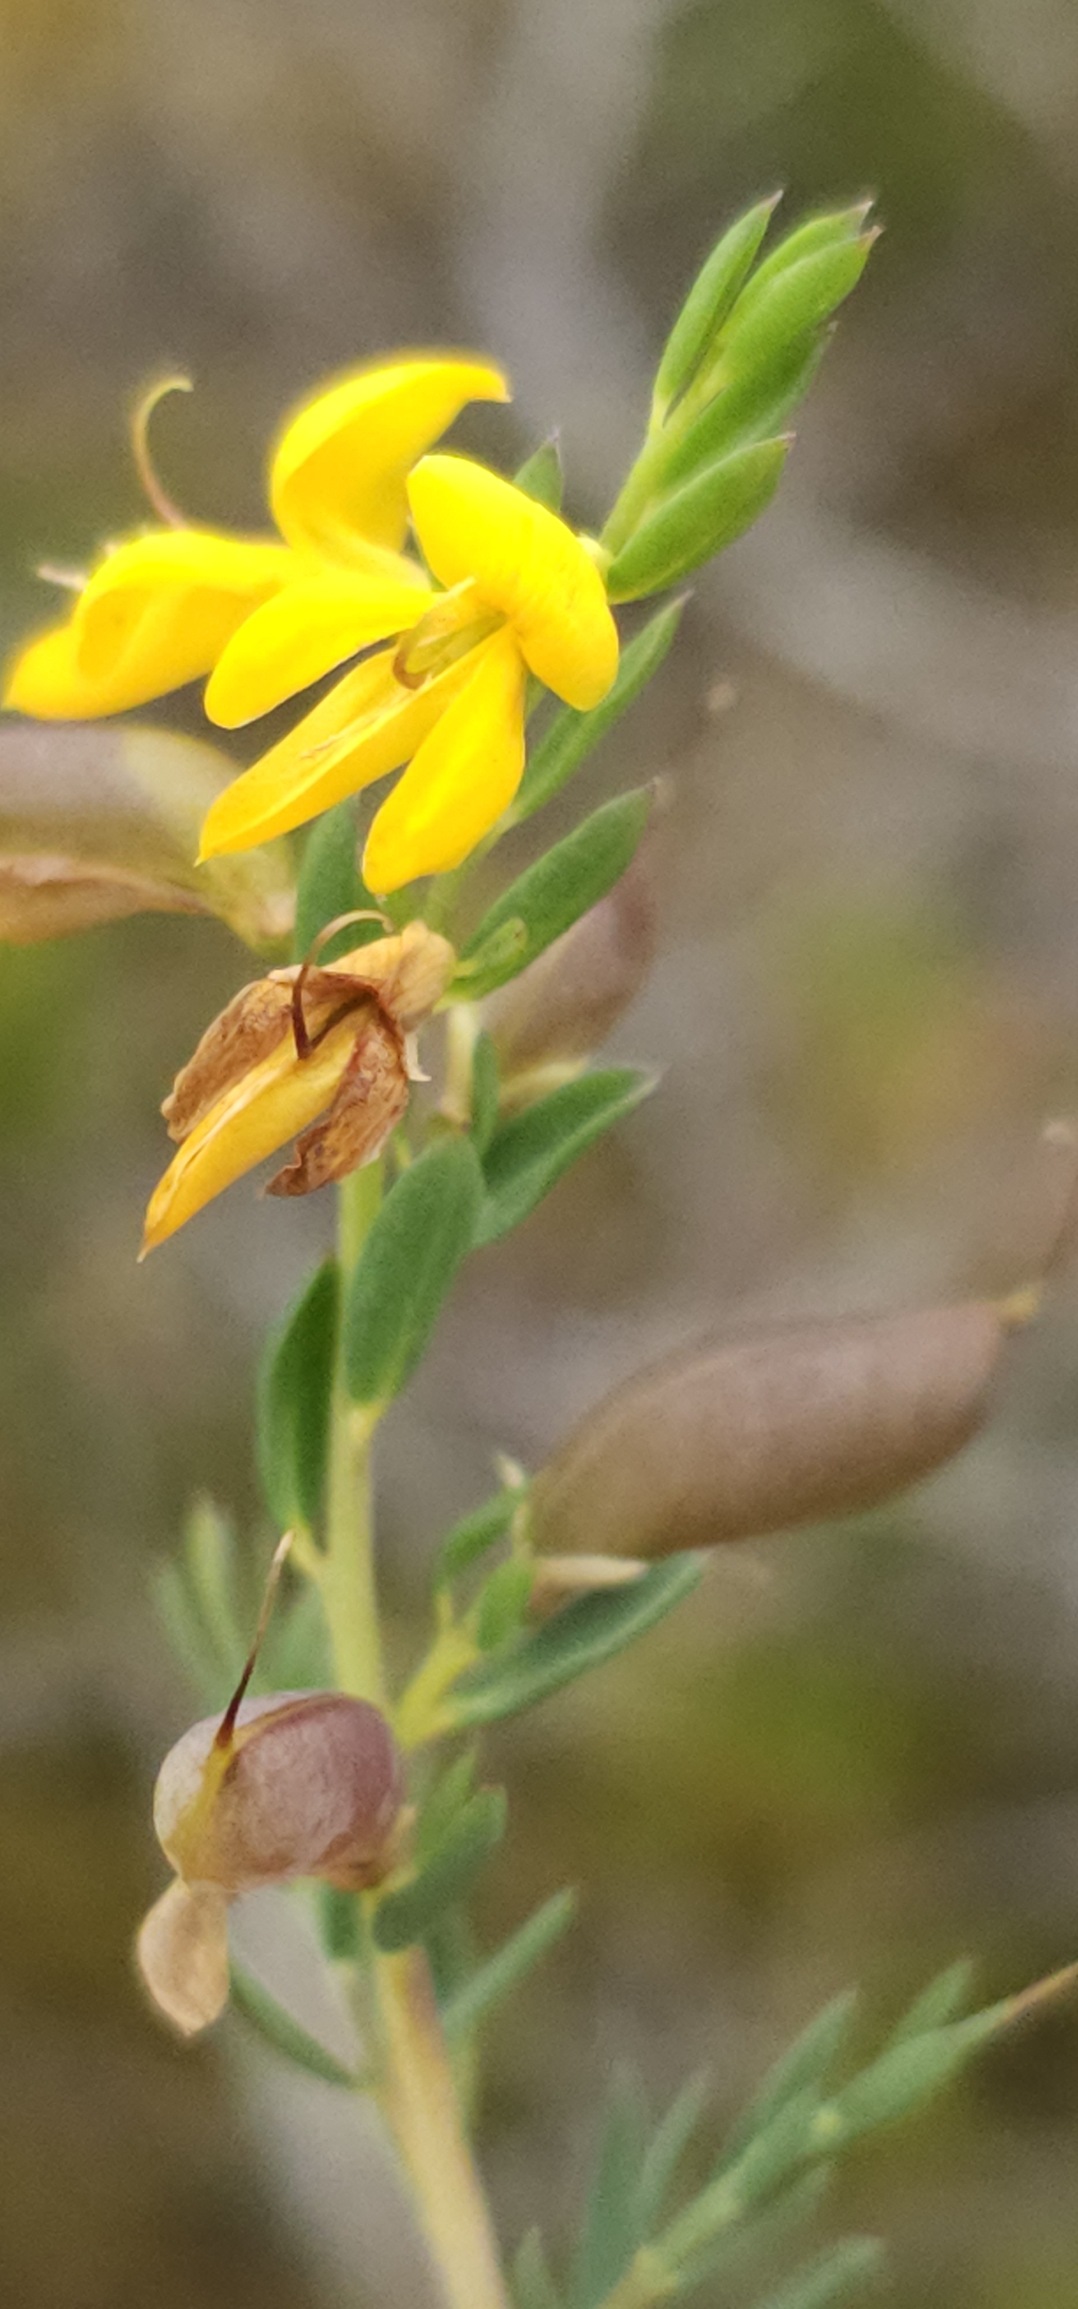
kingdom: Plantae
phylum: Tracheophyta
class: Magnoliopsida
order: Fabales
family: Fabaceae
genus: Genista
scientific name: Genista anglica
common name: Engelsk visse
